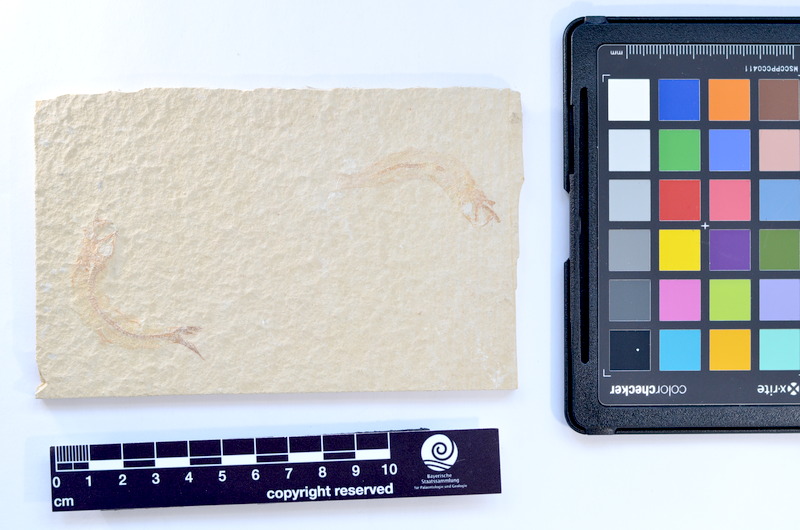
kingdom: Animalia
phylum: Chordata
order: Salmoniformes
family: Orthogonikleithridae
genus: Leptolepides
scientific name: Leptolepides sprattiformis
